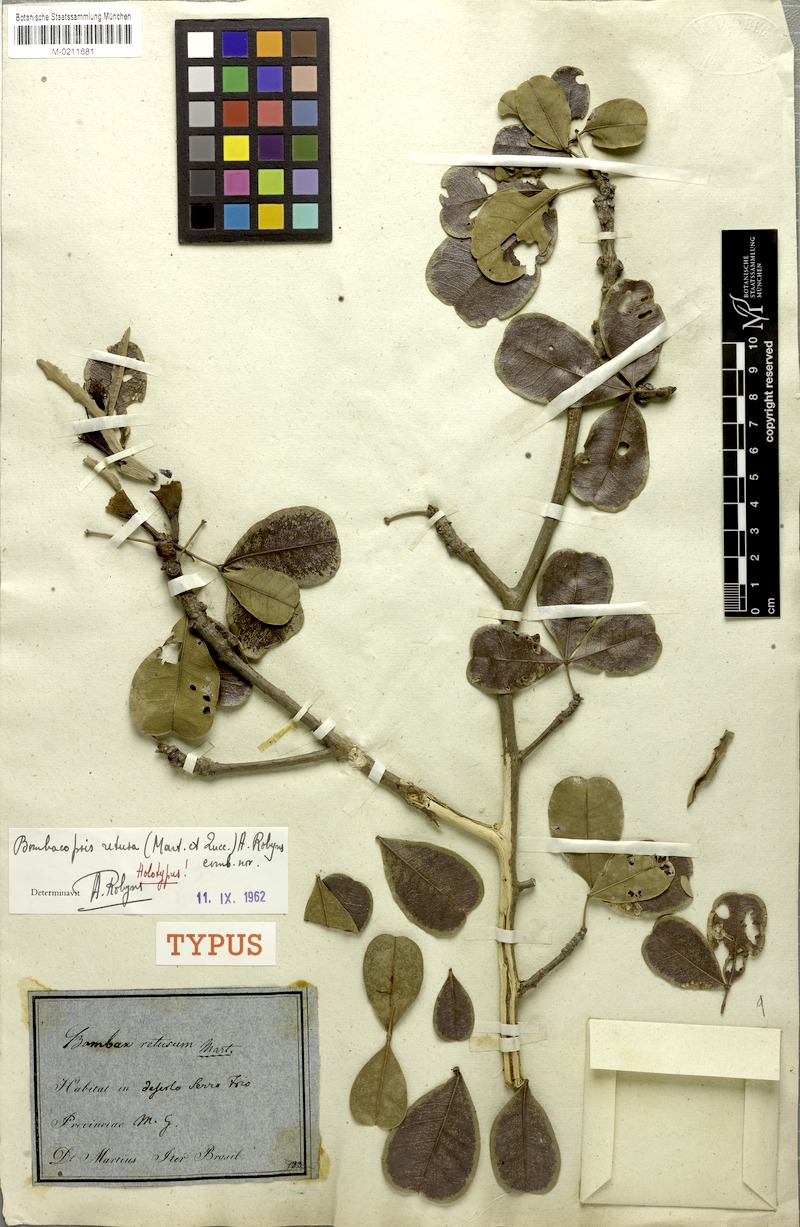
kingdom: Plantae
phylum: Tracheophyta
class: Magnoliopsida
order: Malvales
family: Malvaceae
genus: Pachira
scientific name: Pachira retusa
